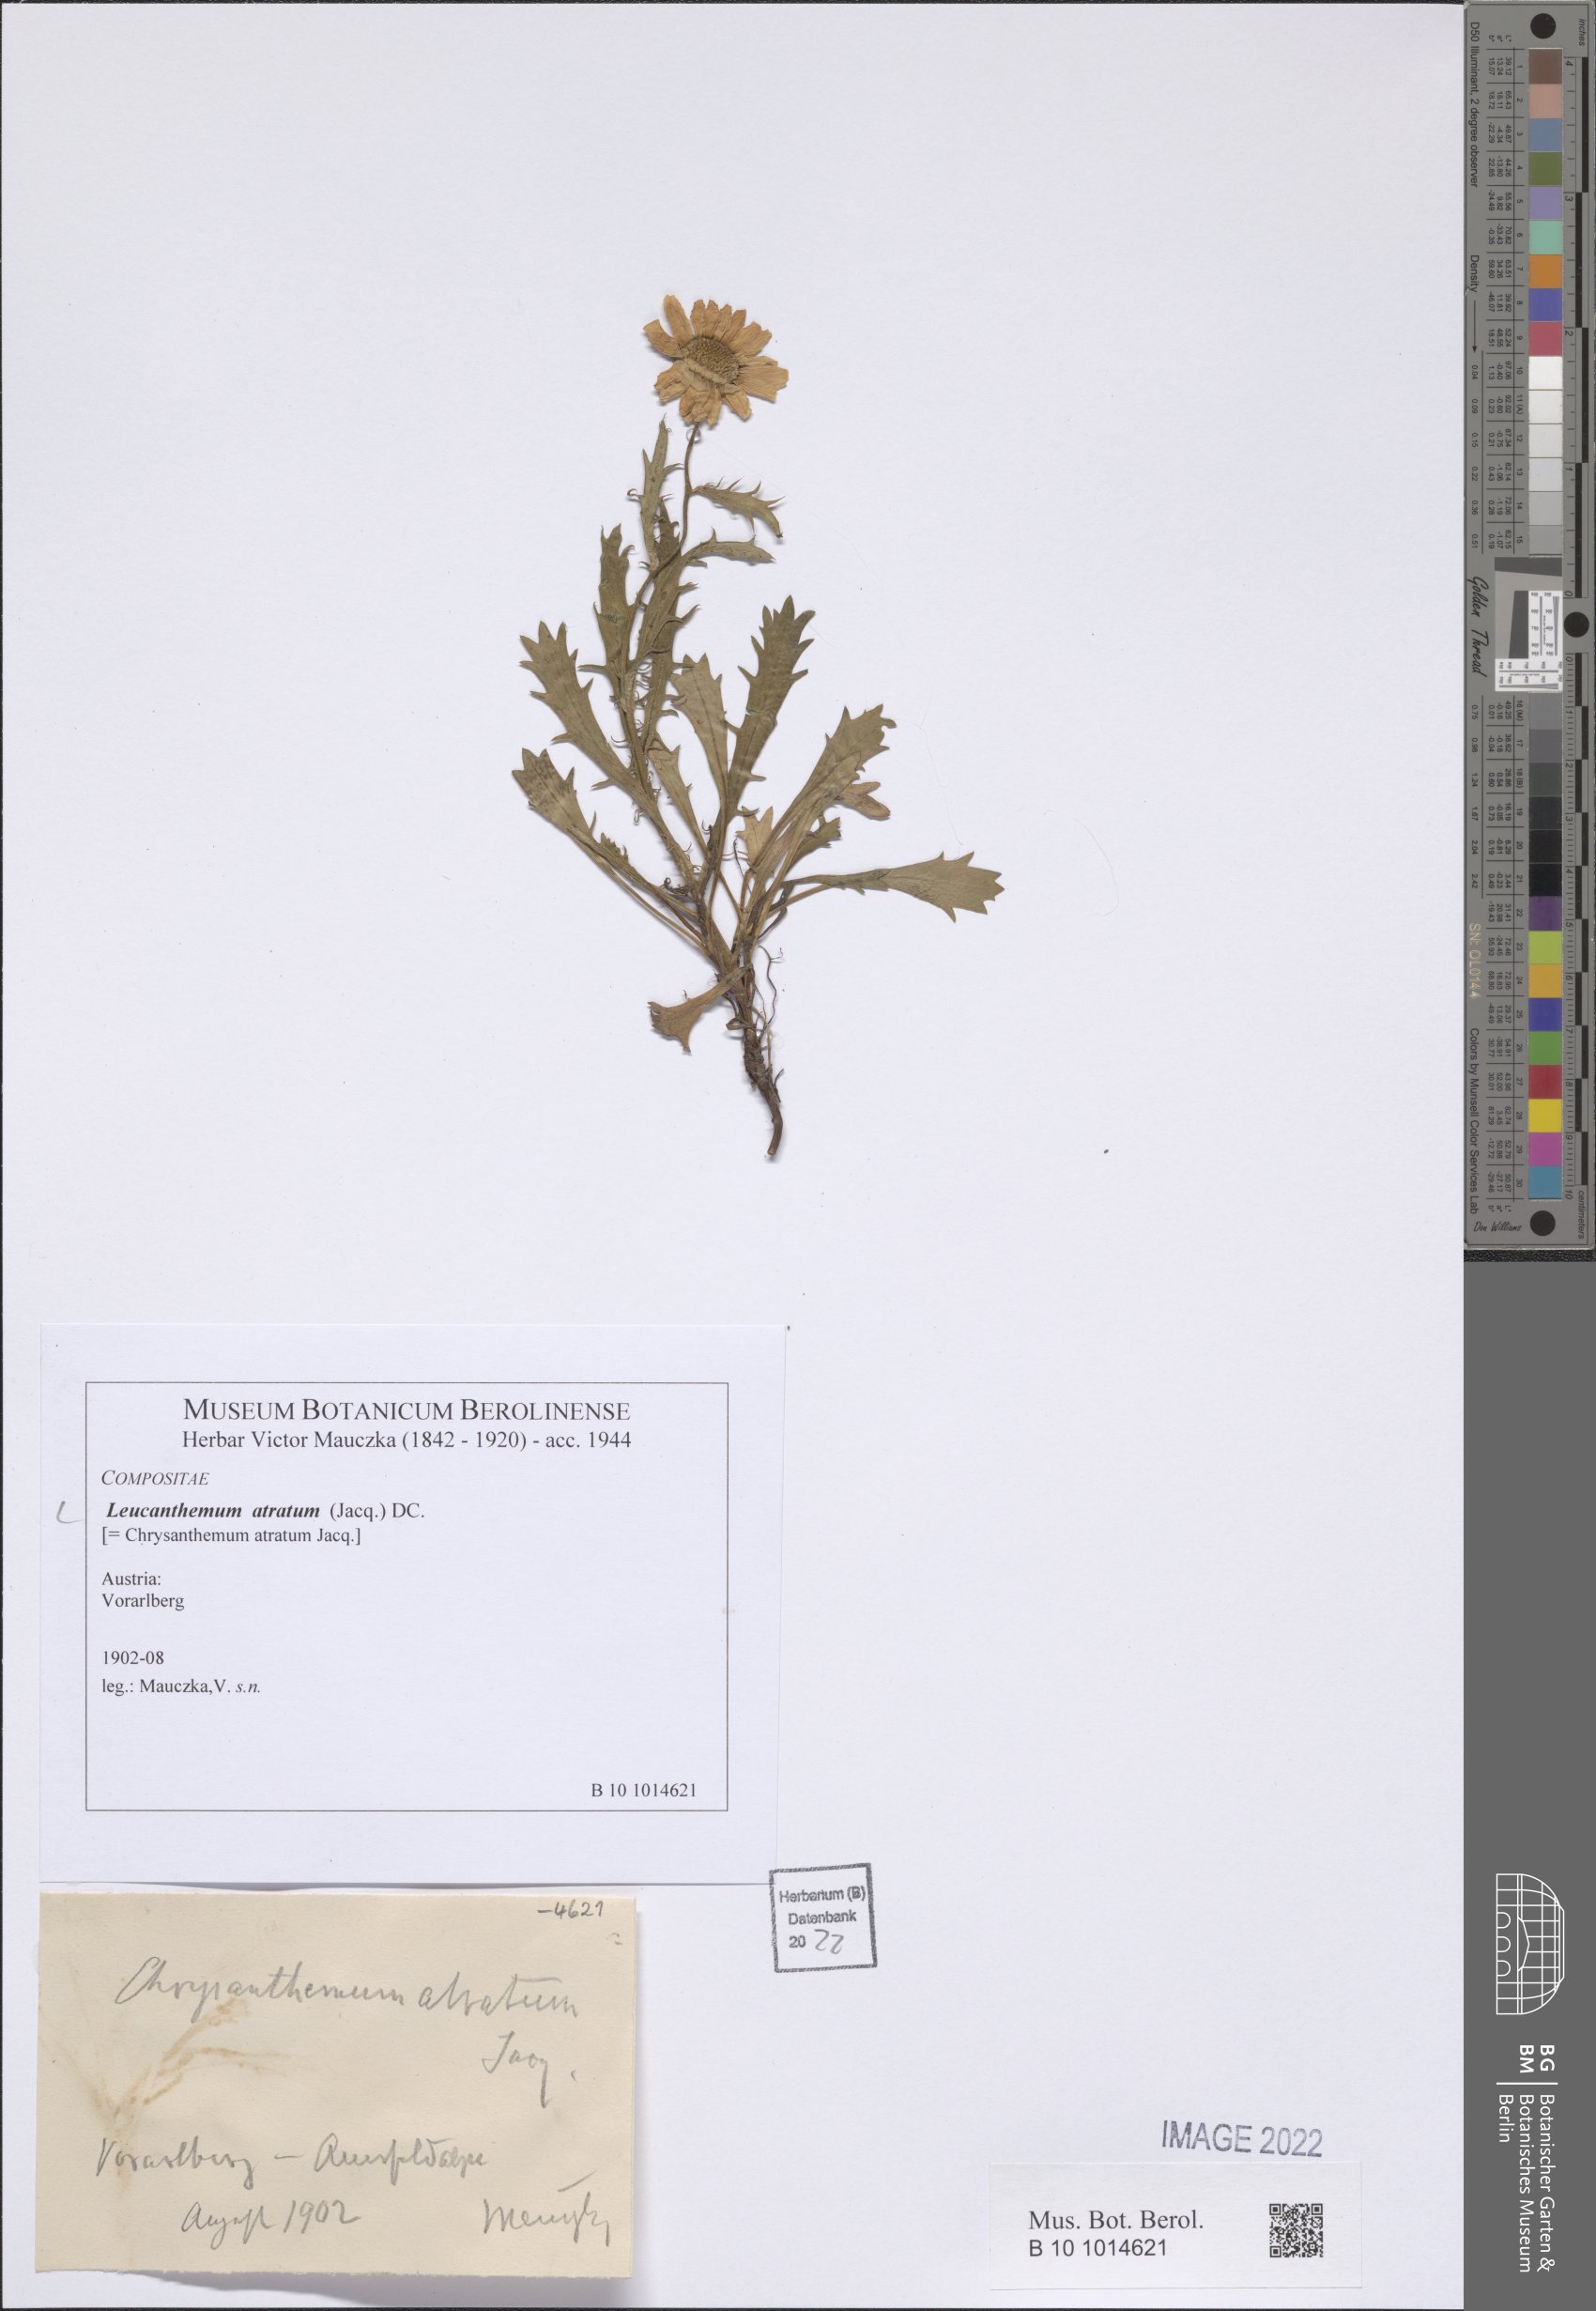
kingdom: Plantae
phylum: Tracheophyta
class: Magnoliopsida
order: Asterales
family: Asteraceae
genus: Leucanthemum
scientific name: Leucanthemum halleri
